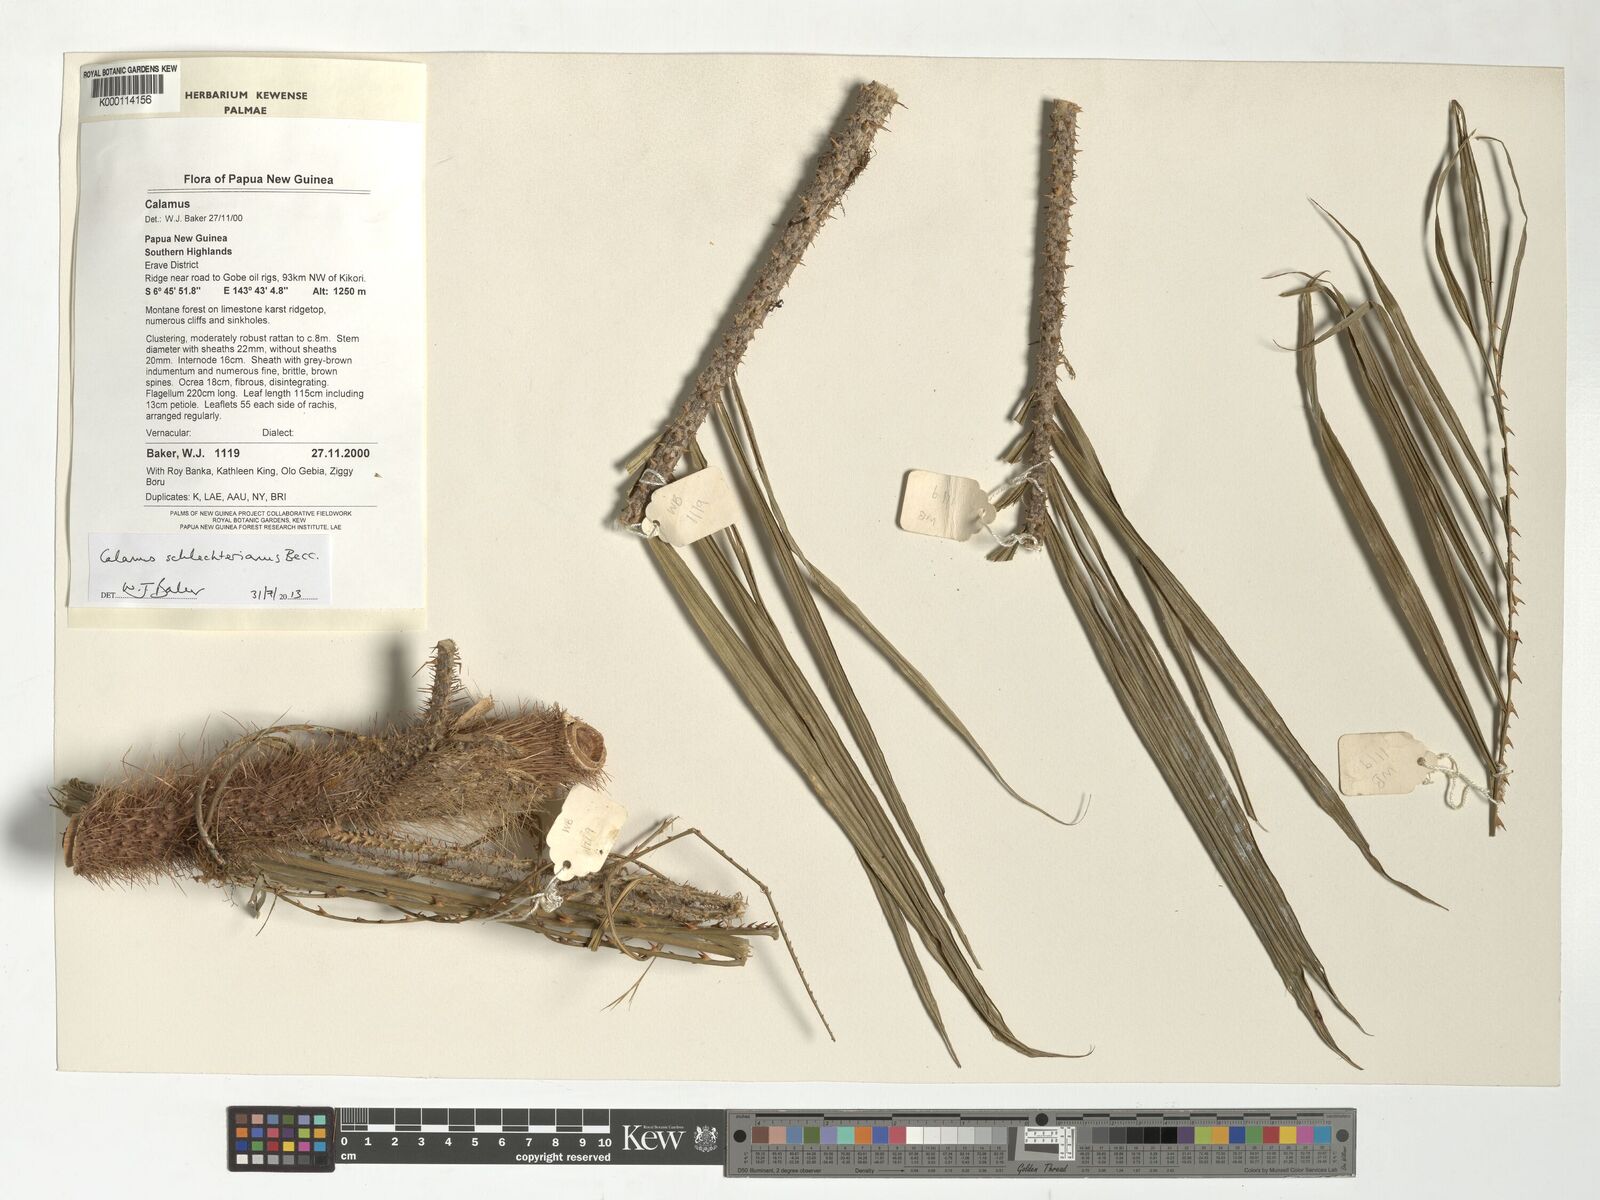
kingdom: Plantae
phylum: Tracheophyta
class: Liliopsida
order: Arecales
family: Arecaceae
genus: Calamus
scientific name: Calamus schlechterianus
